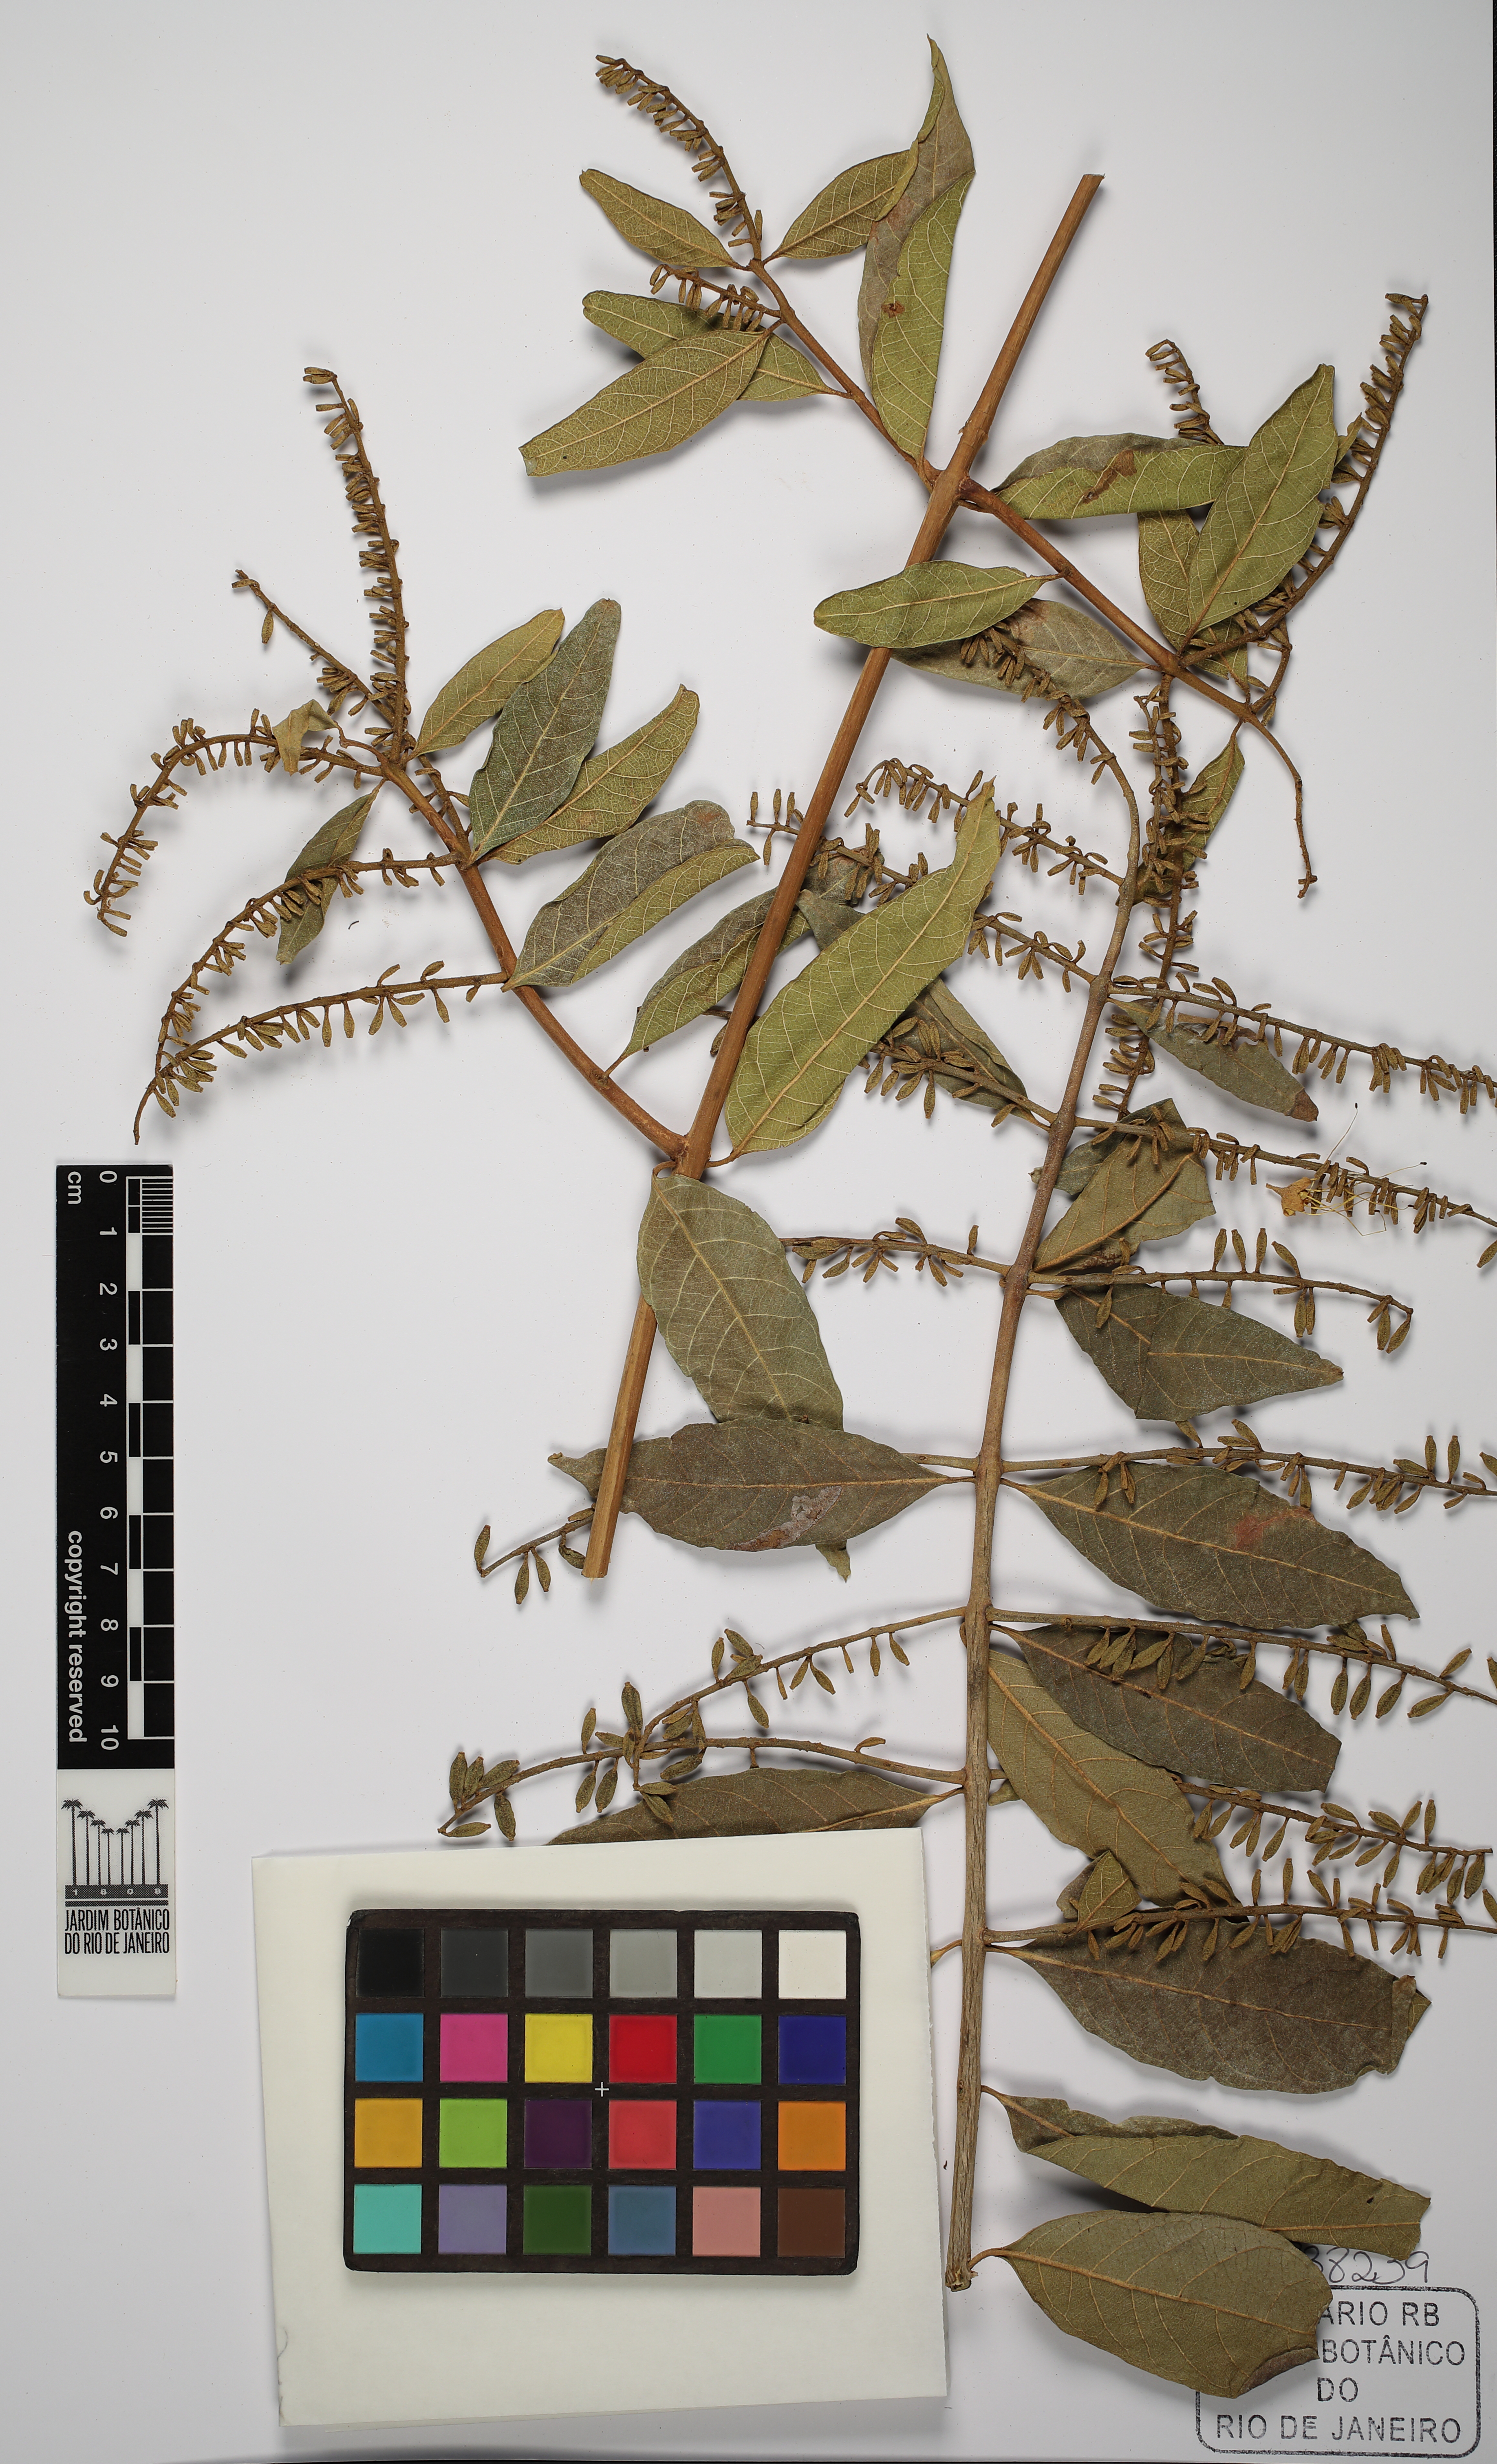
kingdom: Plantae
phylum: Tracheophyta
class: Magnoliopsida
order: Myrtales
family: Combretaceae
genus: Combretum
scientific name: Combretum fruticosum
